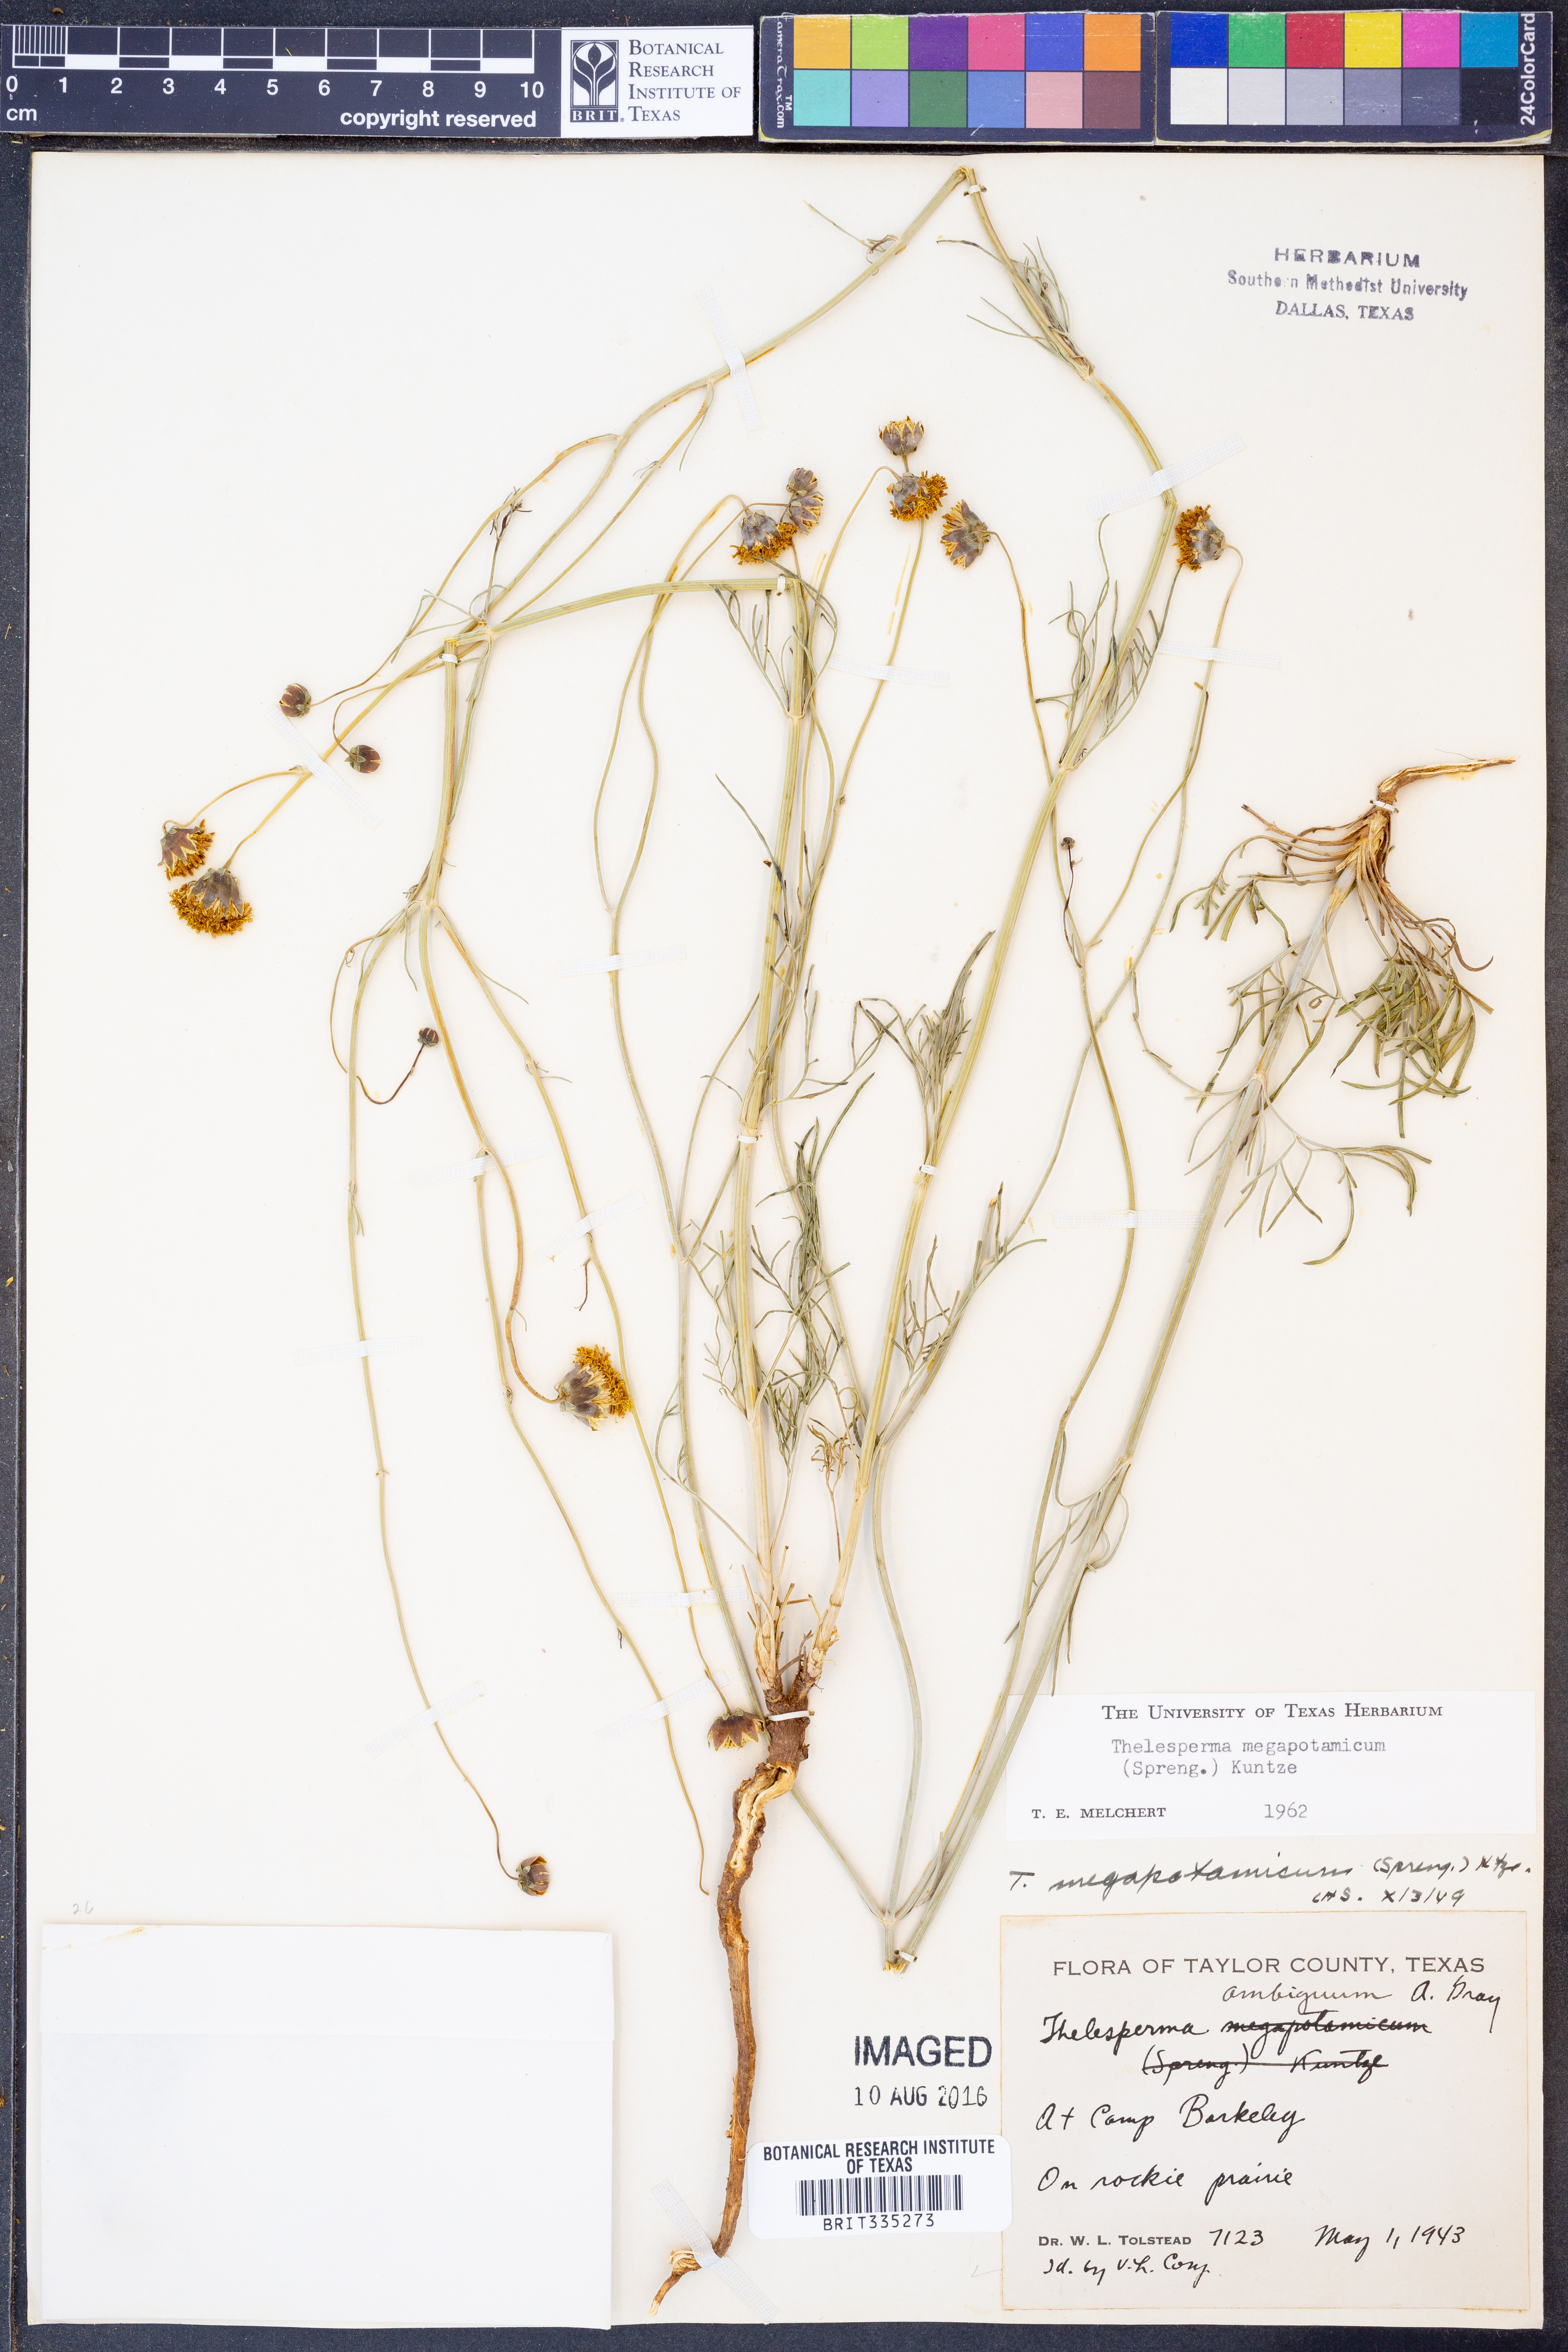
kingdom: Plantae
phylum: Tracheophyta
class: Magnoliopsida
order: Asterales
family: Asteraceae
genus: Thelesperma
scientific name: Thelesperma megapotamicum
